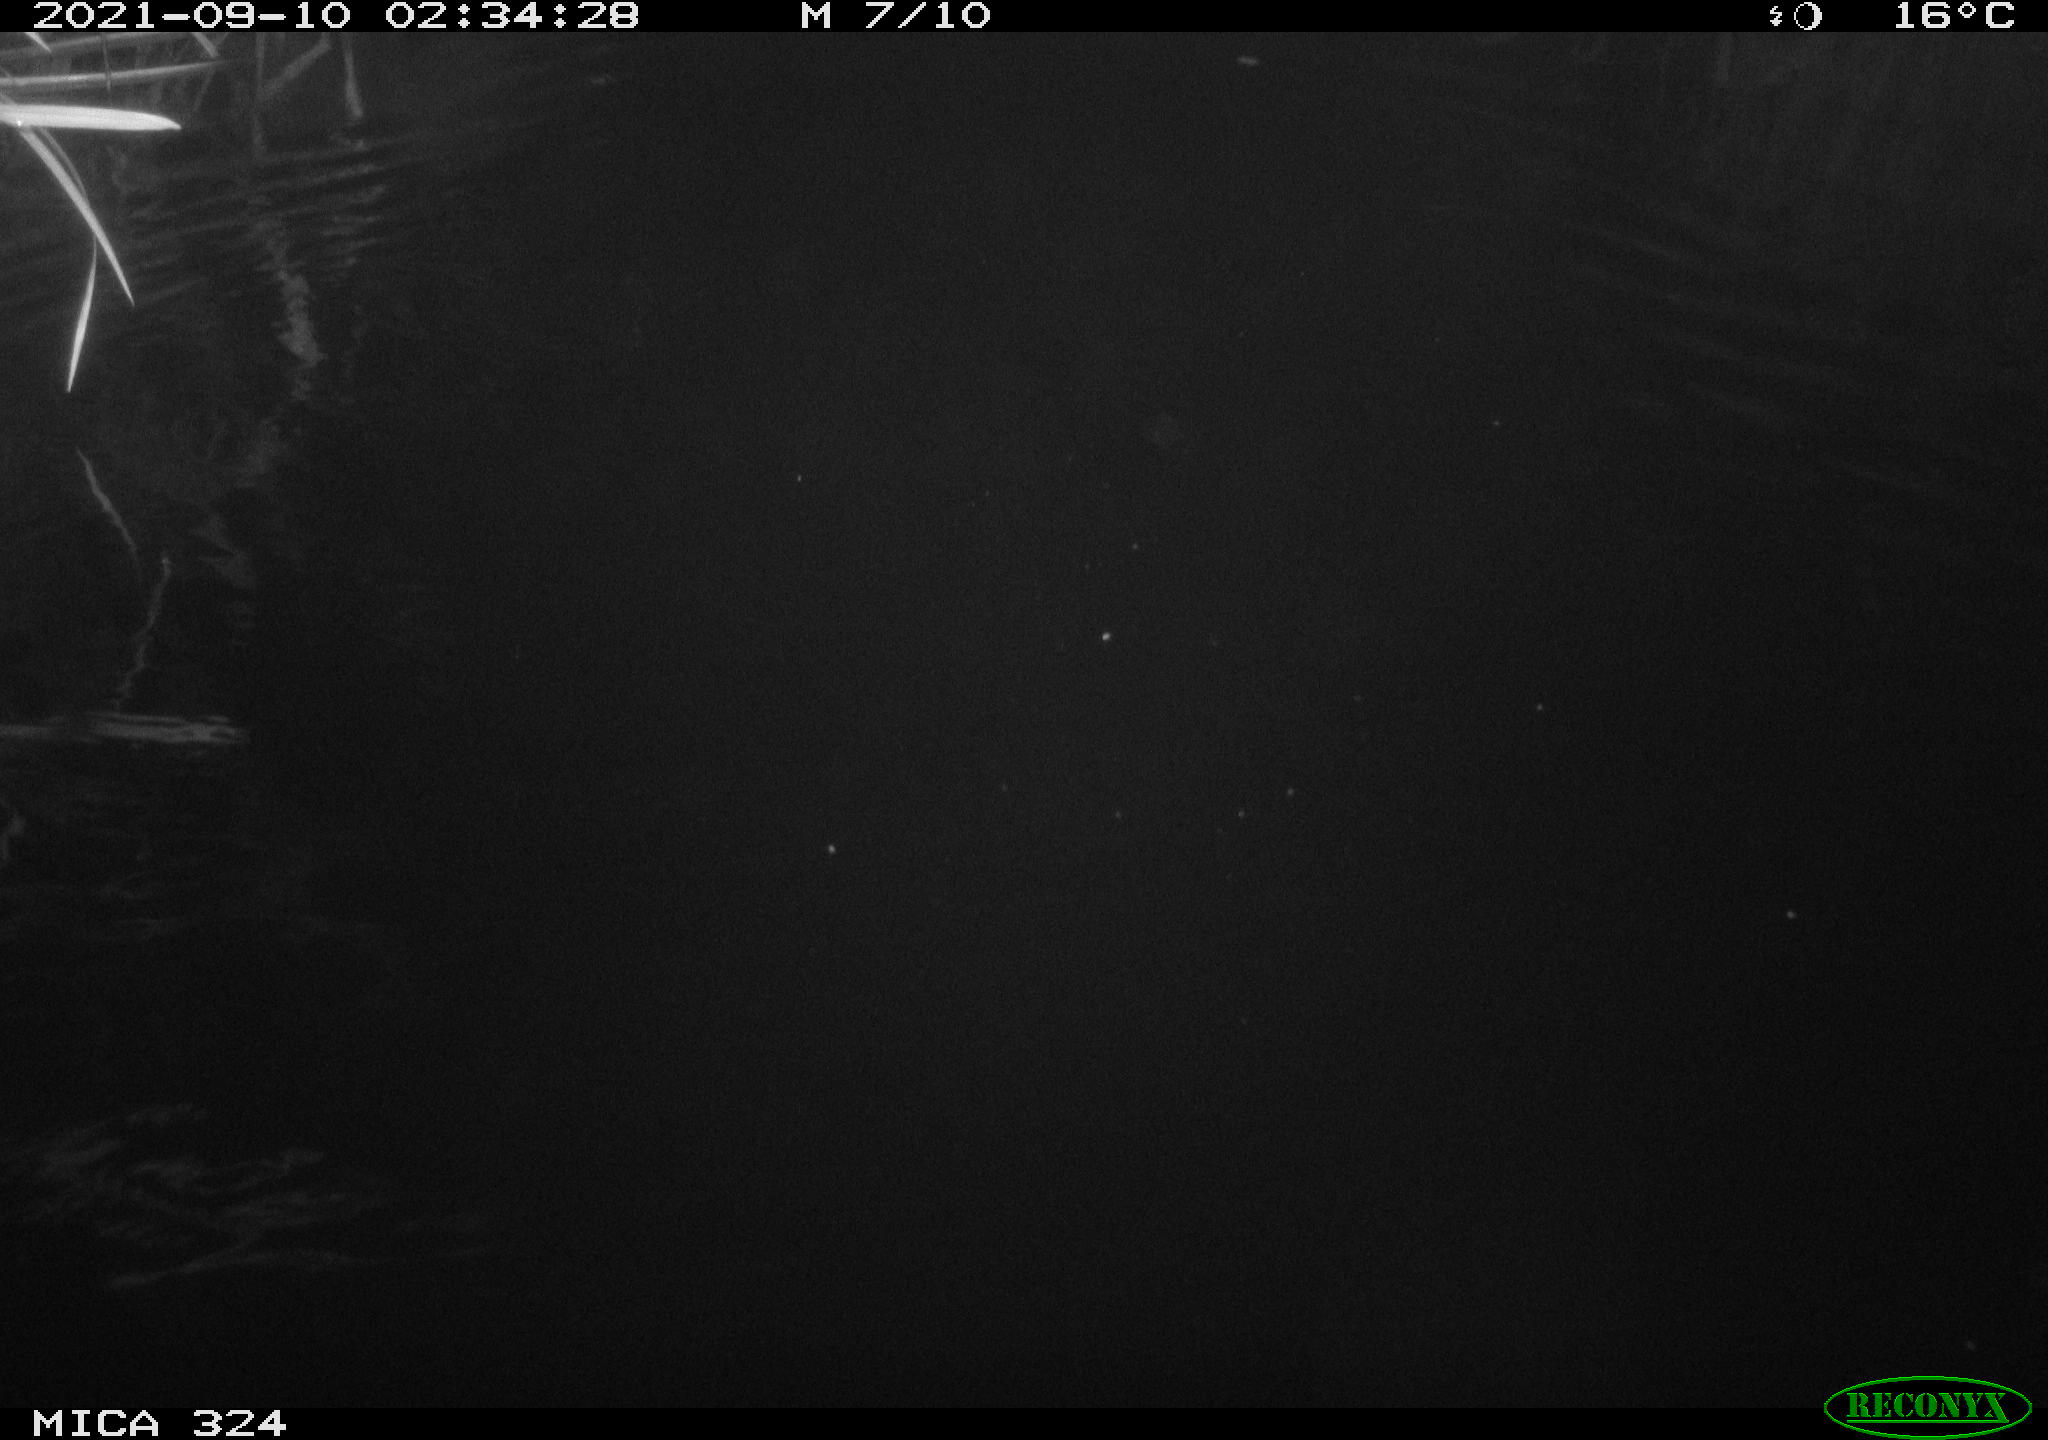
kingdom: Animalia
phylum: Chordata
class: Mammalia
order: Rodentia
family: Cricetidae
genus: Ondatra
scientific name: Ondatra zibethicus
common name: Muskrat
